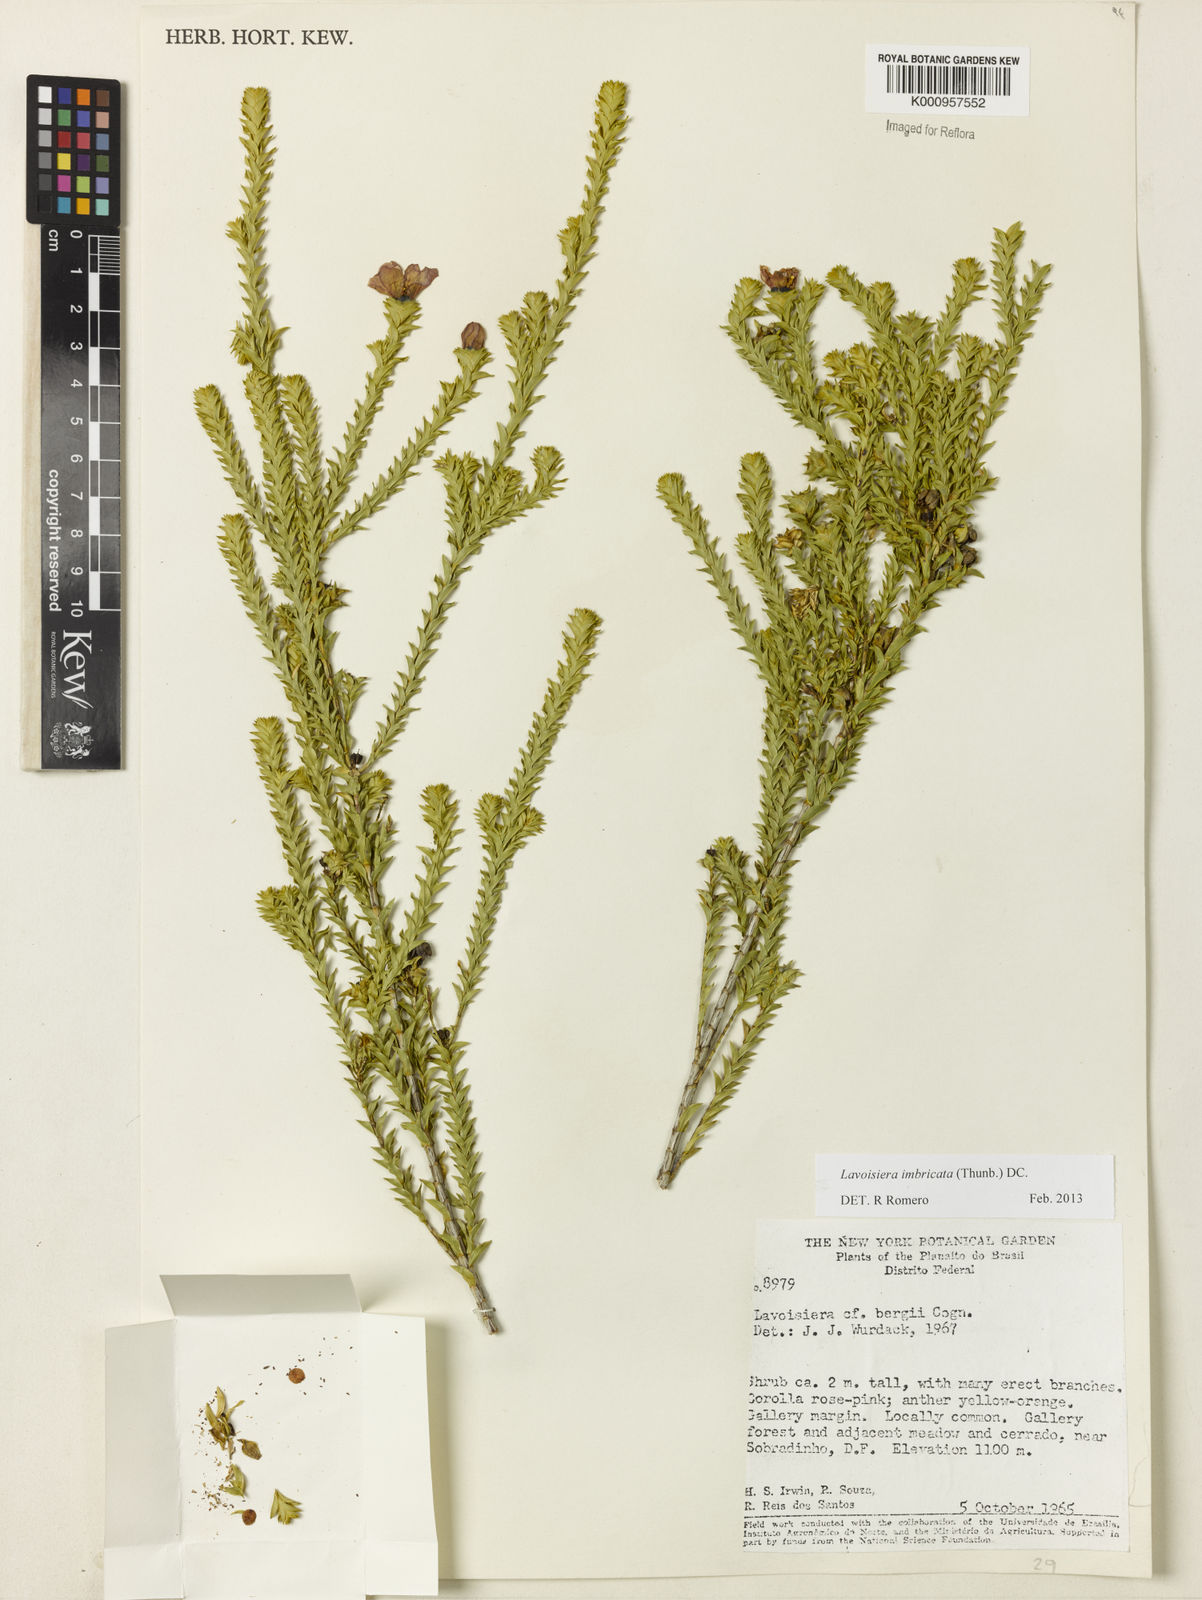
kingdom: Plantae
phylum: Tracheophyta
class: Magnoliopsida
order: Myrtales
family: Melastomataceae
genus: Microlicia
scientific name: Microlicia cataphracta
